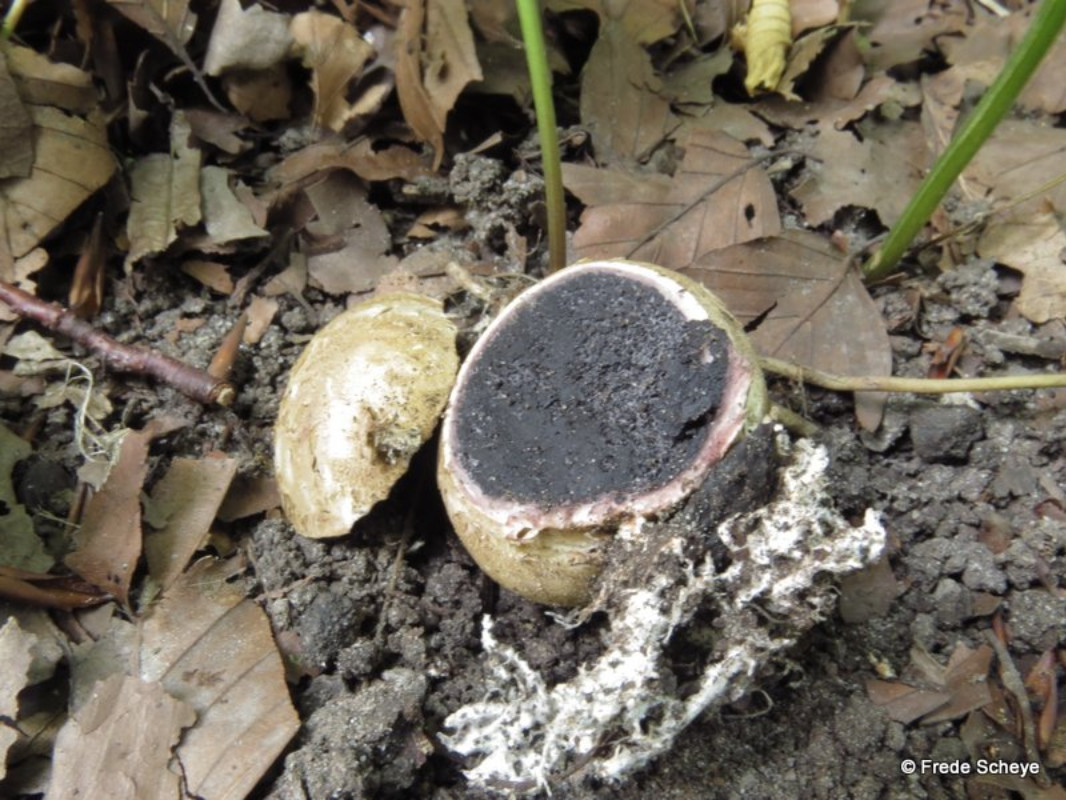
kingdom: Fungi
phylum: Basidiomycota
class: Agaricomycetes
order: Boletales
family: Sclerodermataceae
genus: Scleroderma
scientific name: Scleroderma citrinum
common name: almindelig bruskbold
